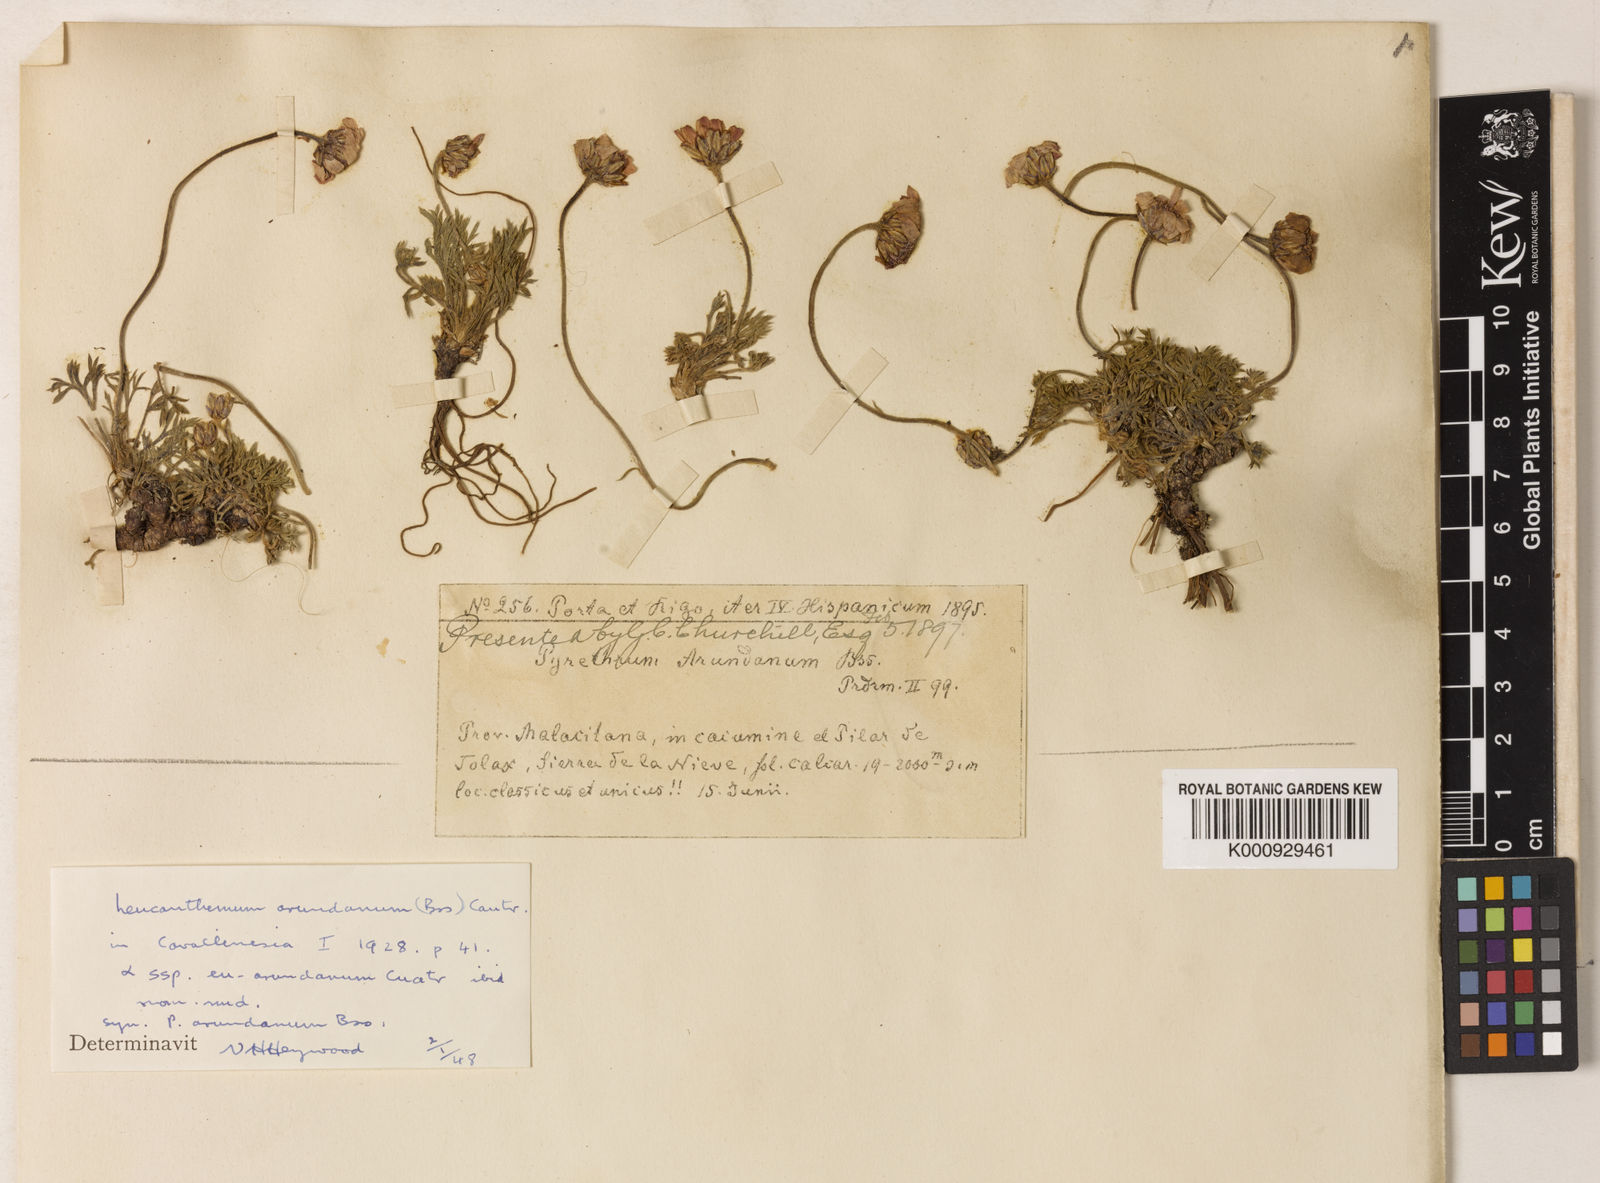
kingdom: Plantae
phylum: Tracheophyta
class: Magnoliopsida
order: Asterales
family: Asteraceae
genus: Rhodanthemum
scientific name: Rhodanthemum arundanum
